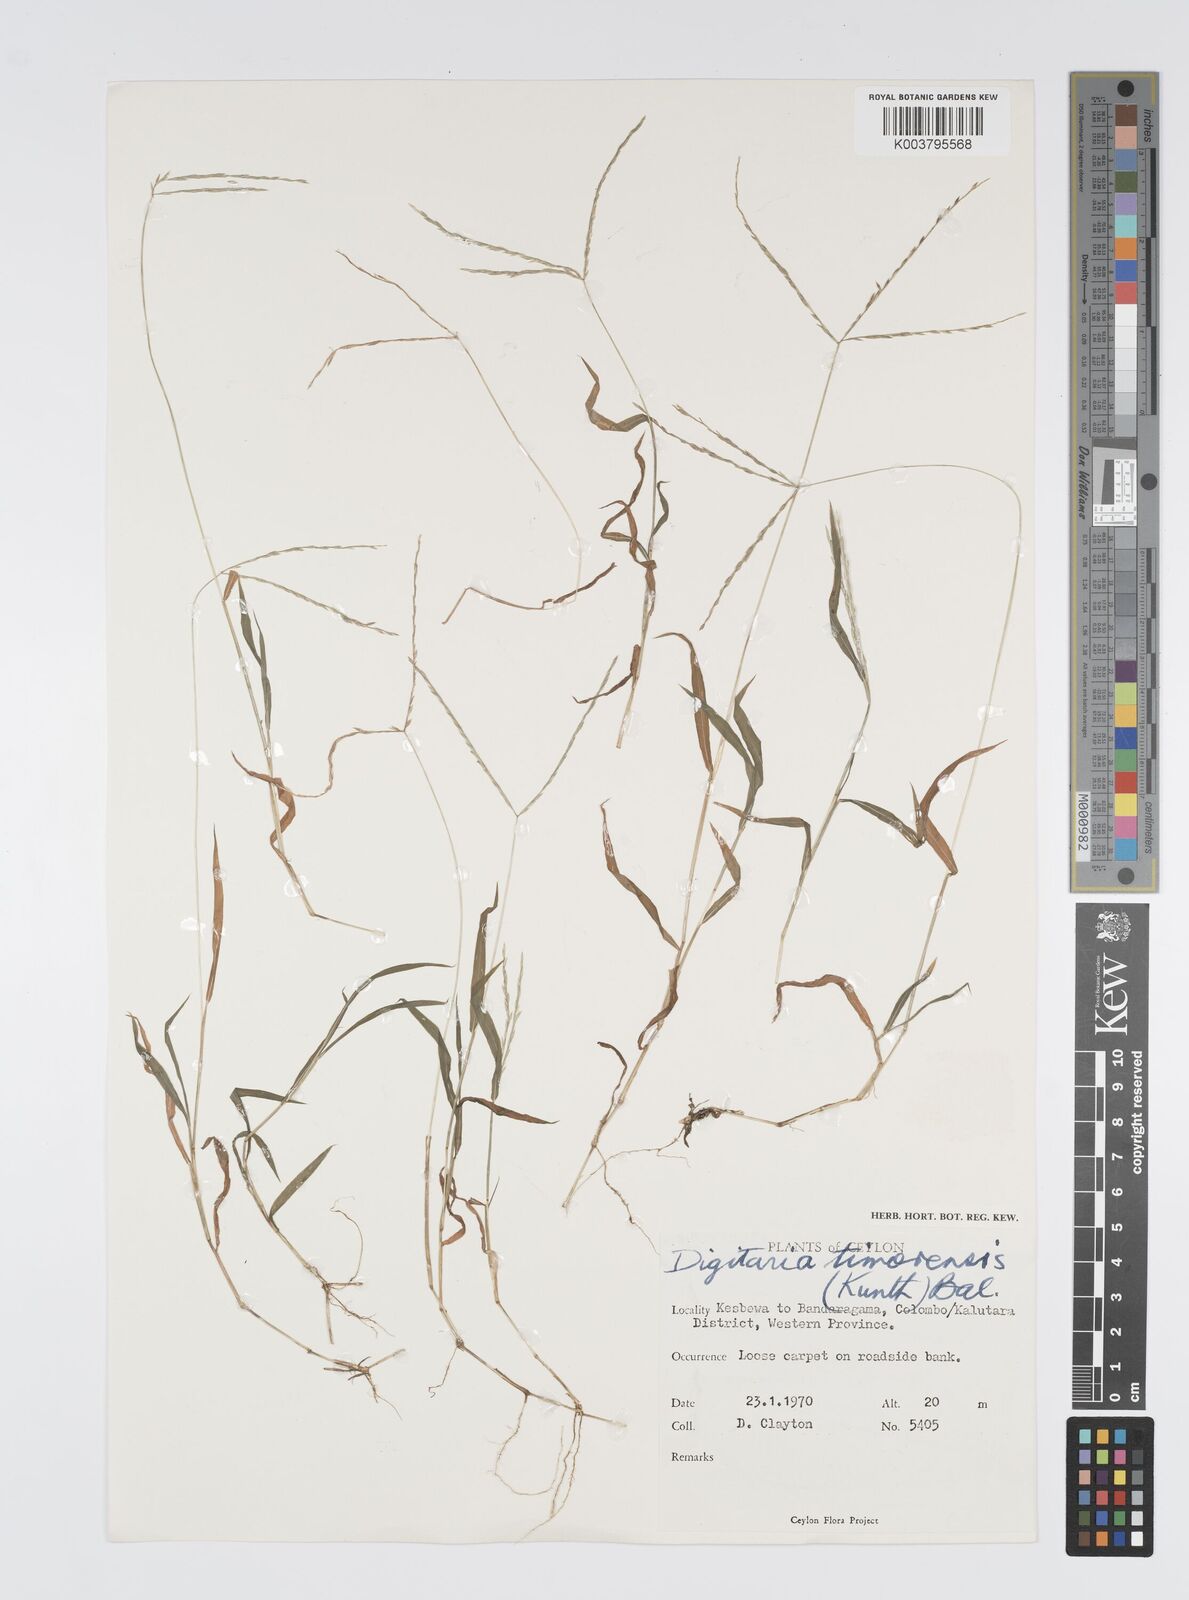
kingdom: Plantae
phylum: Tracheophyta
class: Liliopsida
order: Poales
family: Poaceae
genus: Digitaria
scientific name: Digitaria radicosa
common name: Trailing crabgrass
